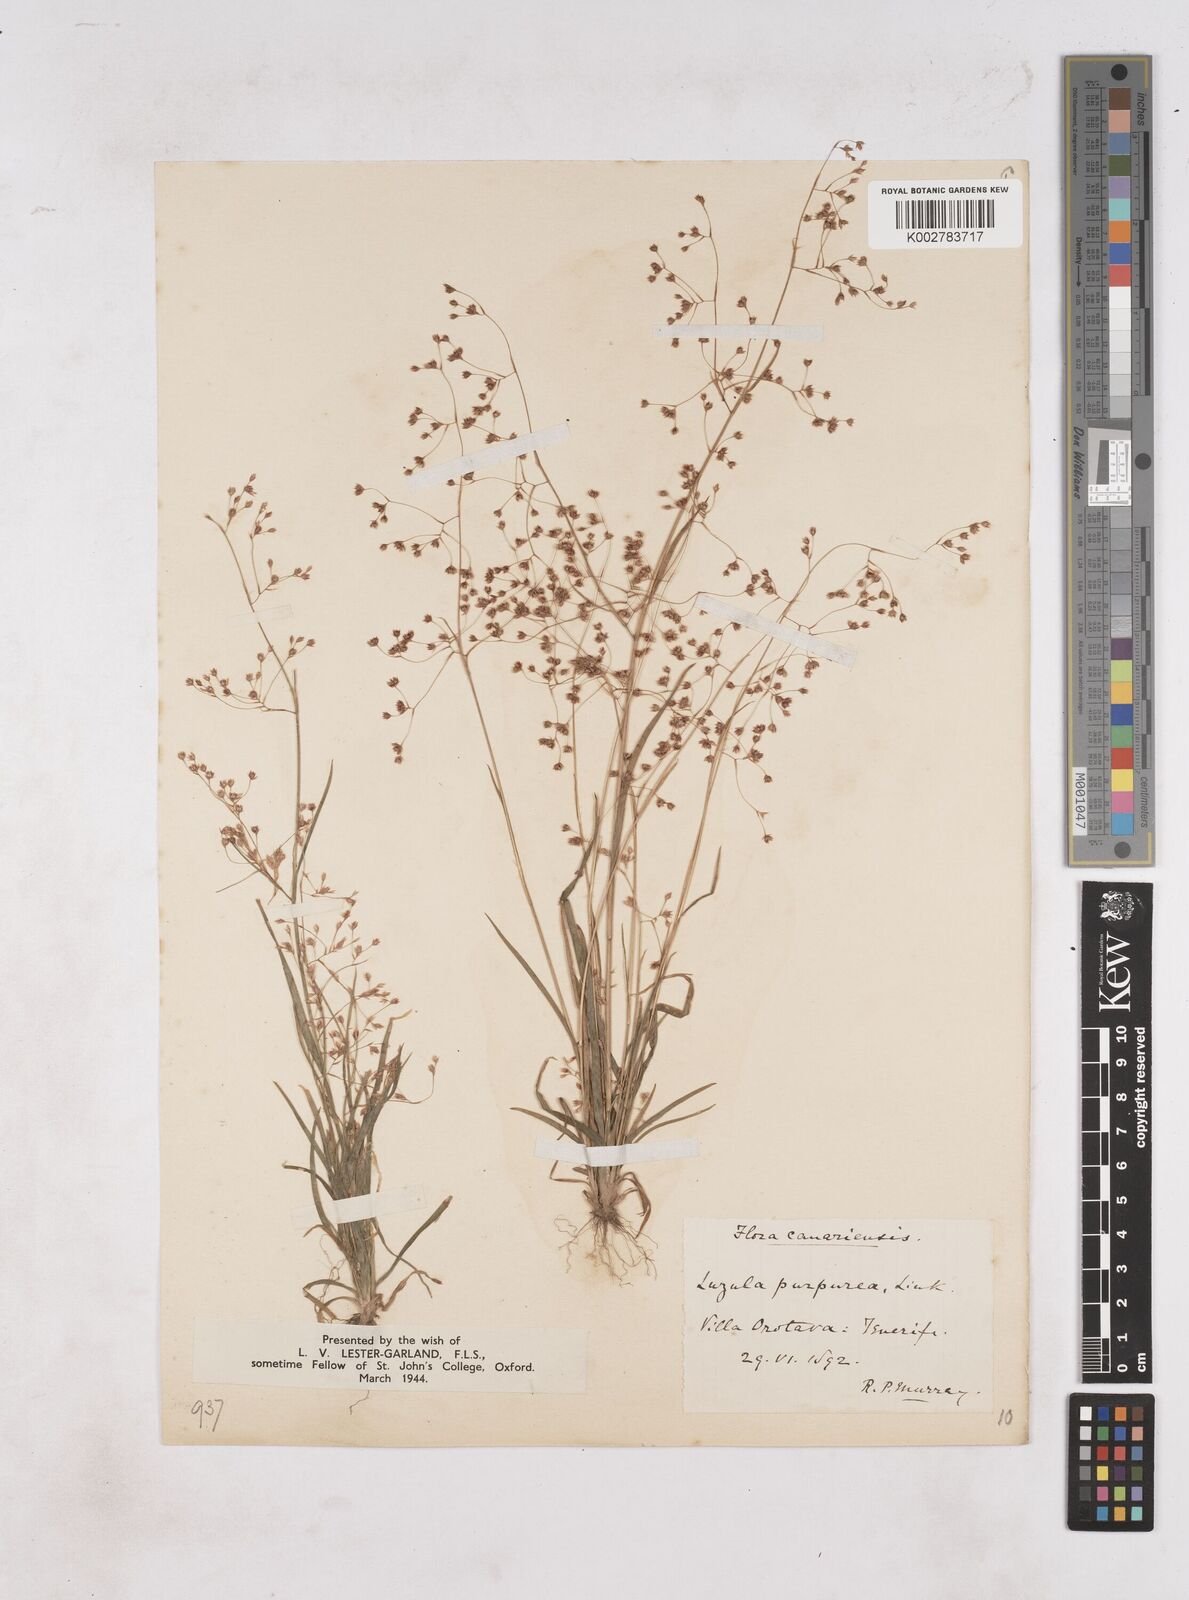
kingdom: Plantae
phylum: Tracheophyta
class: Liliopsida
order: Poales
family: Juncaceae
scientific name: Juncaceae
